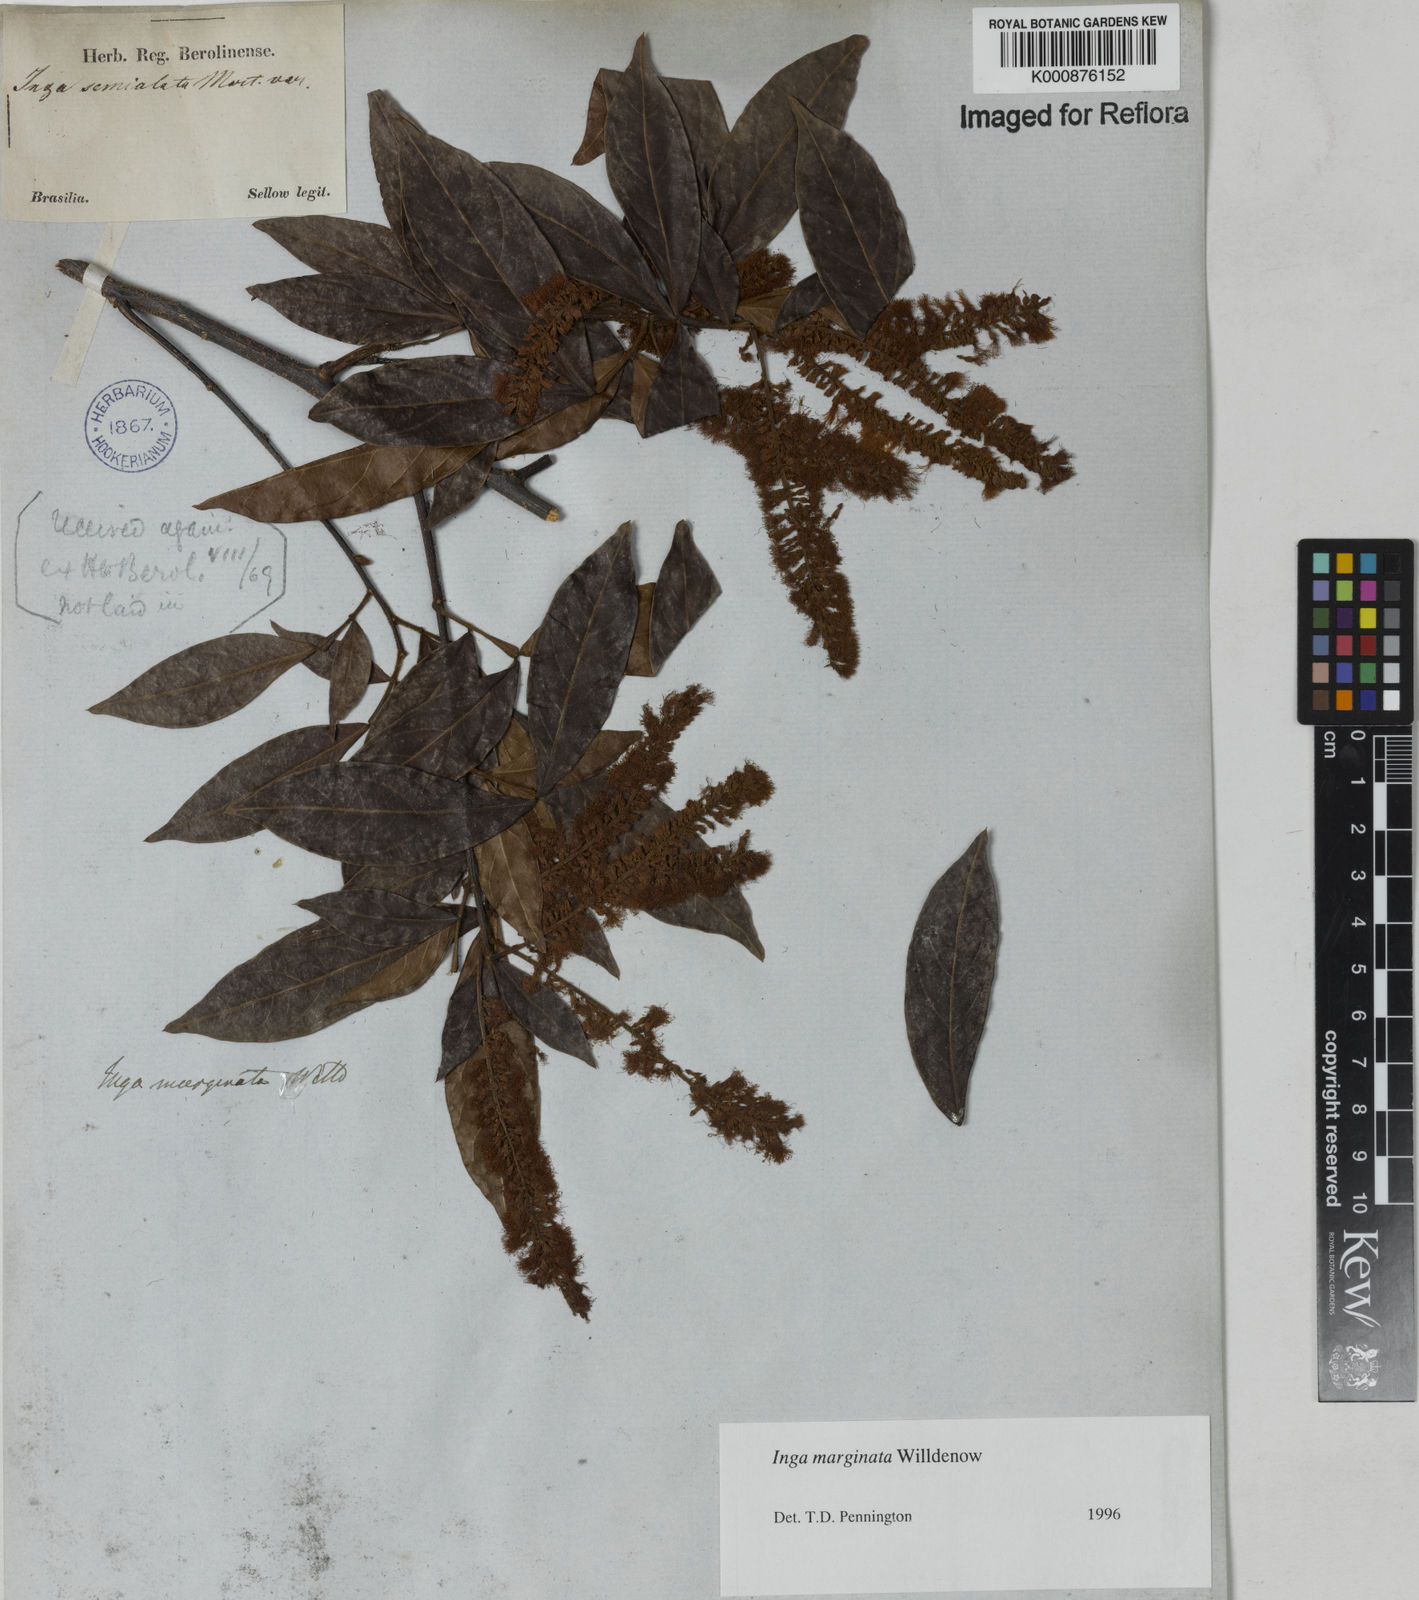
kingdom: Plantae
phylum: Tracheophyta
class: Magnoliopsida
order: Fabales
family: Fabaceae
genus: Inga
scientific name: Inga marginata
